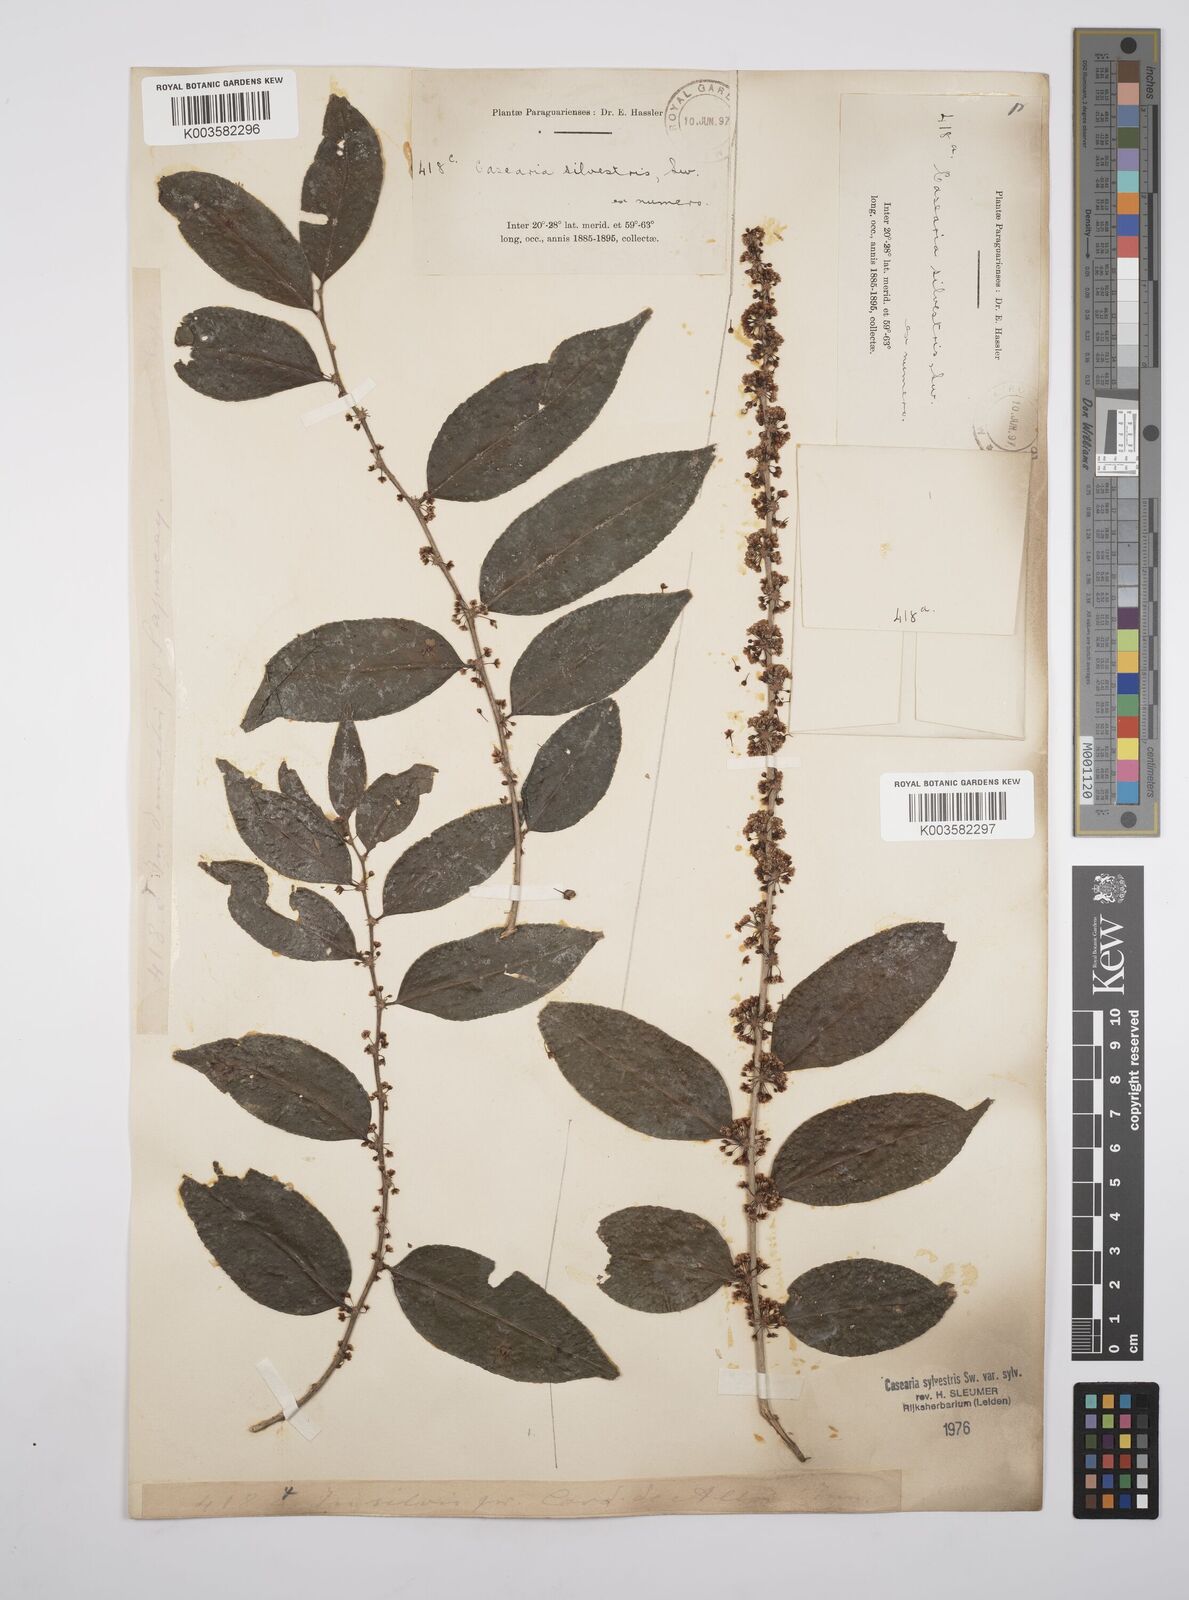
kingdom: Plantae
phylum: Tracheophyta
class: Magnoliopsida
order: Malpighiales
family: Salicaceae
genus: Casearia
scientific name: Casearia sylvestris
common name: Wild sage
